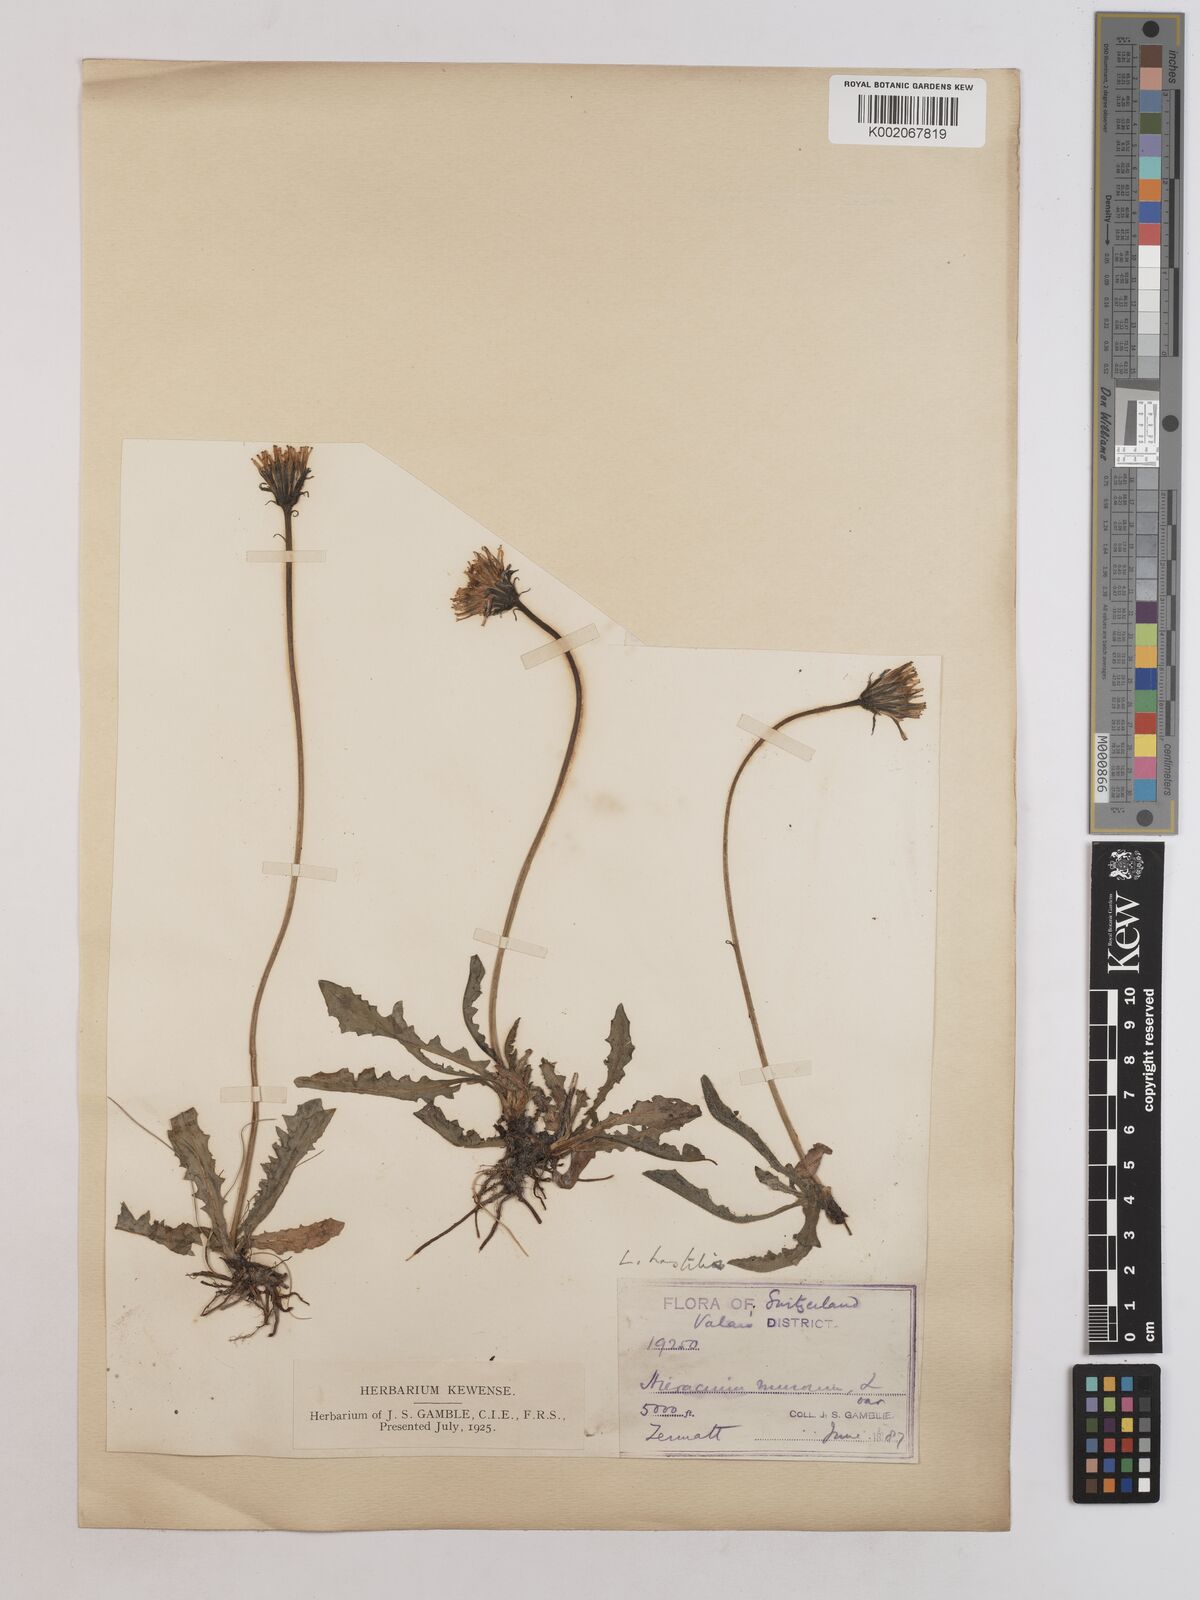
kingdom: Plantae
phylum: Tracheophyta
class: Magnoliopsida
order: Asterales
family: Asteraceae
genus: Leontodon
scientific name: Leontodon hispidus
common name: Rough hawkbit
